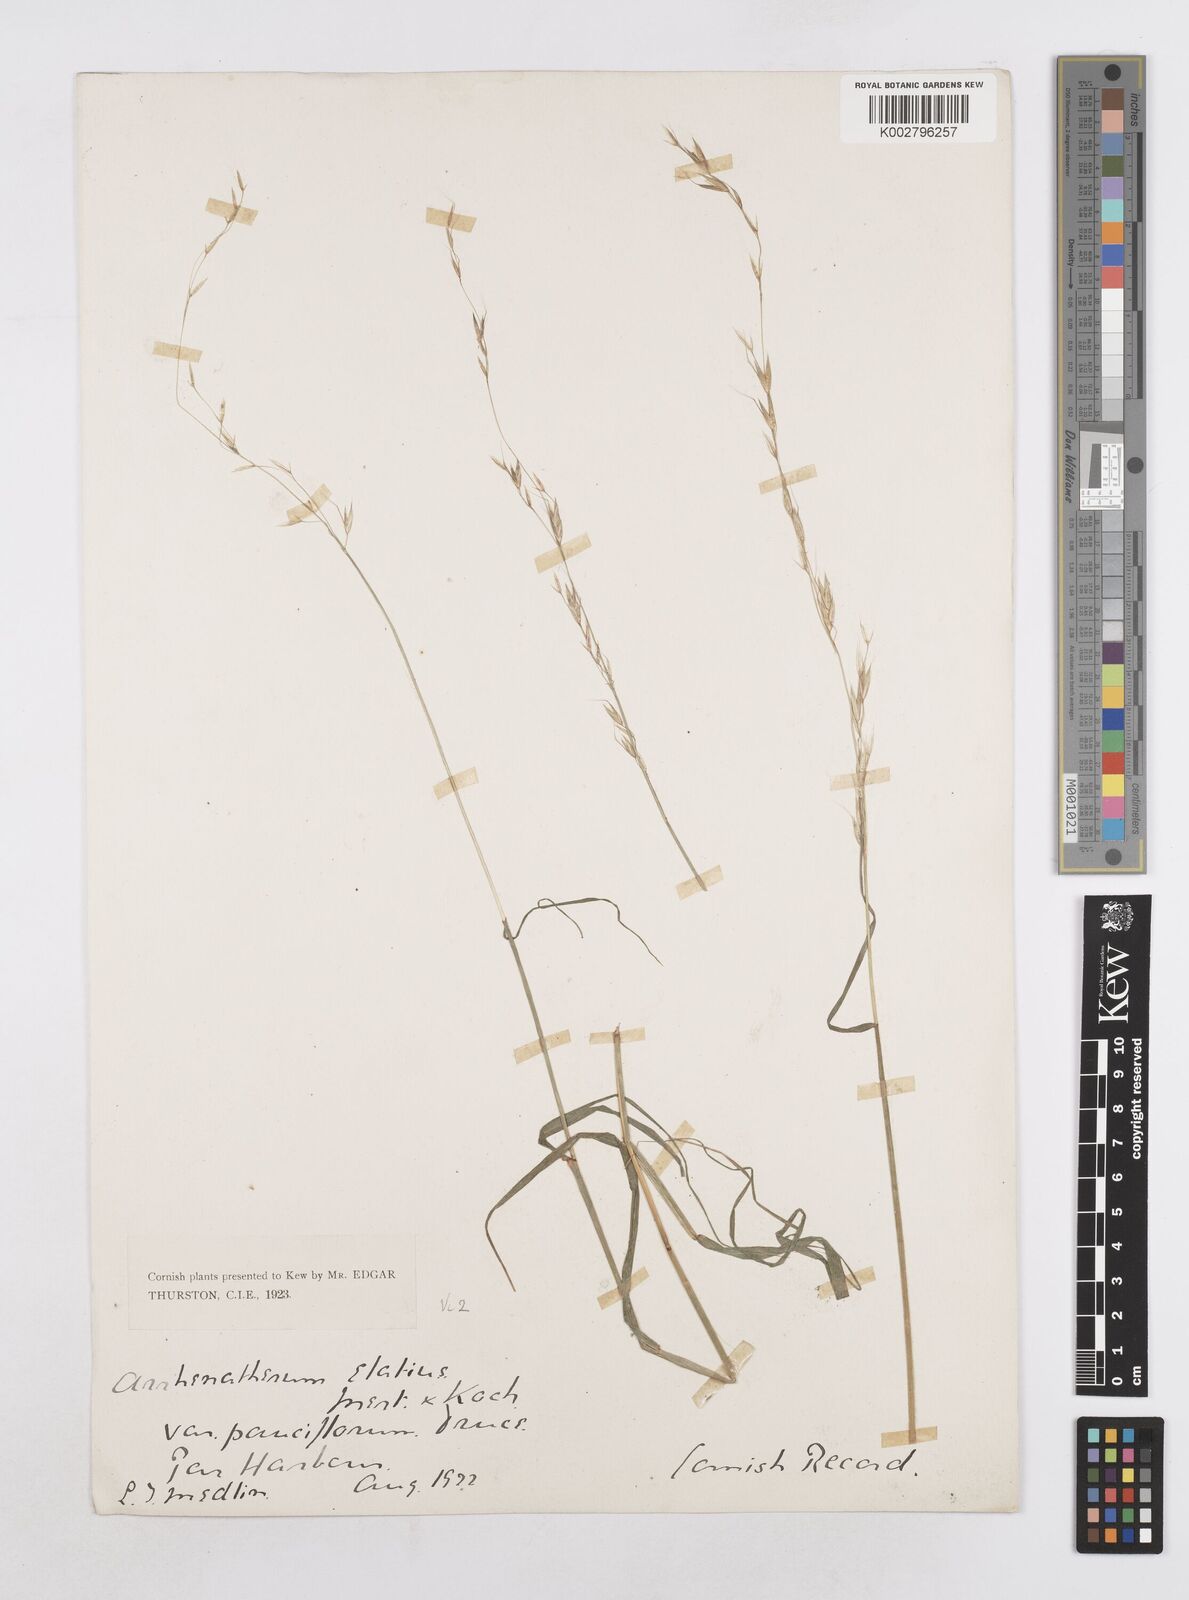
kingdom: Plantae
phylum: Tracheophyta
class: Liliopsida
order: Poales
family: Poaceae
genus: Arrhenatherum
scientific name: Arrhenatherum elatius
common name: Tall oatgrass
